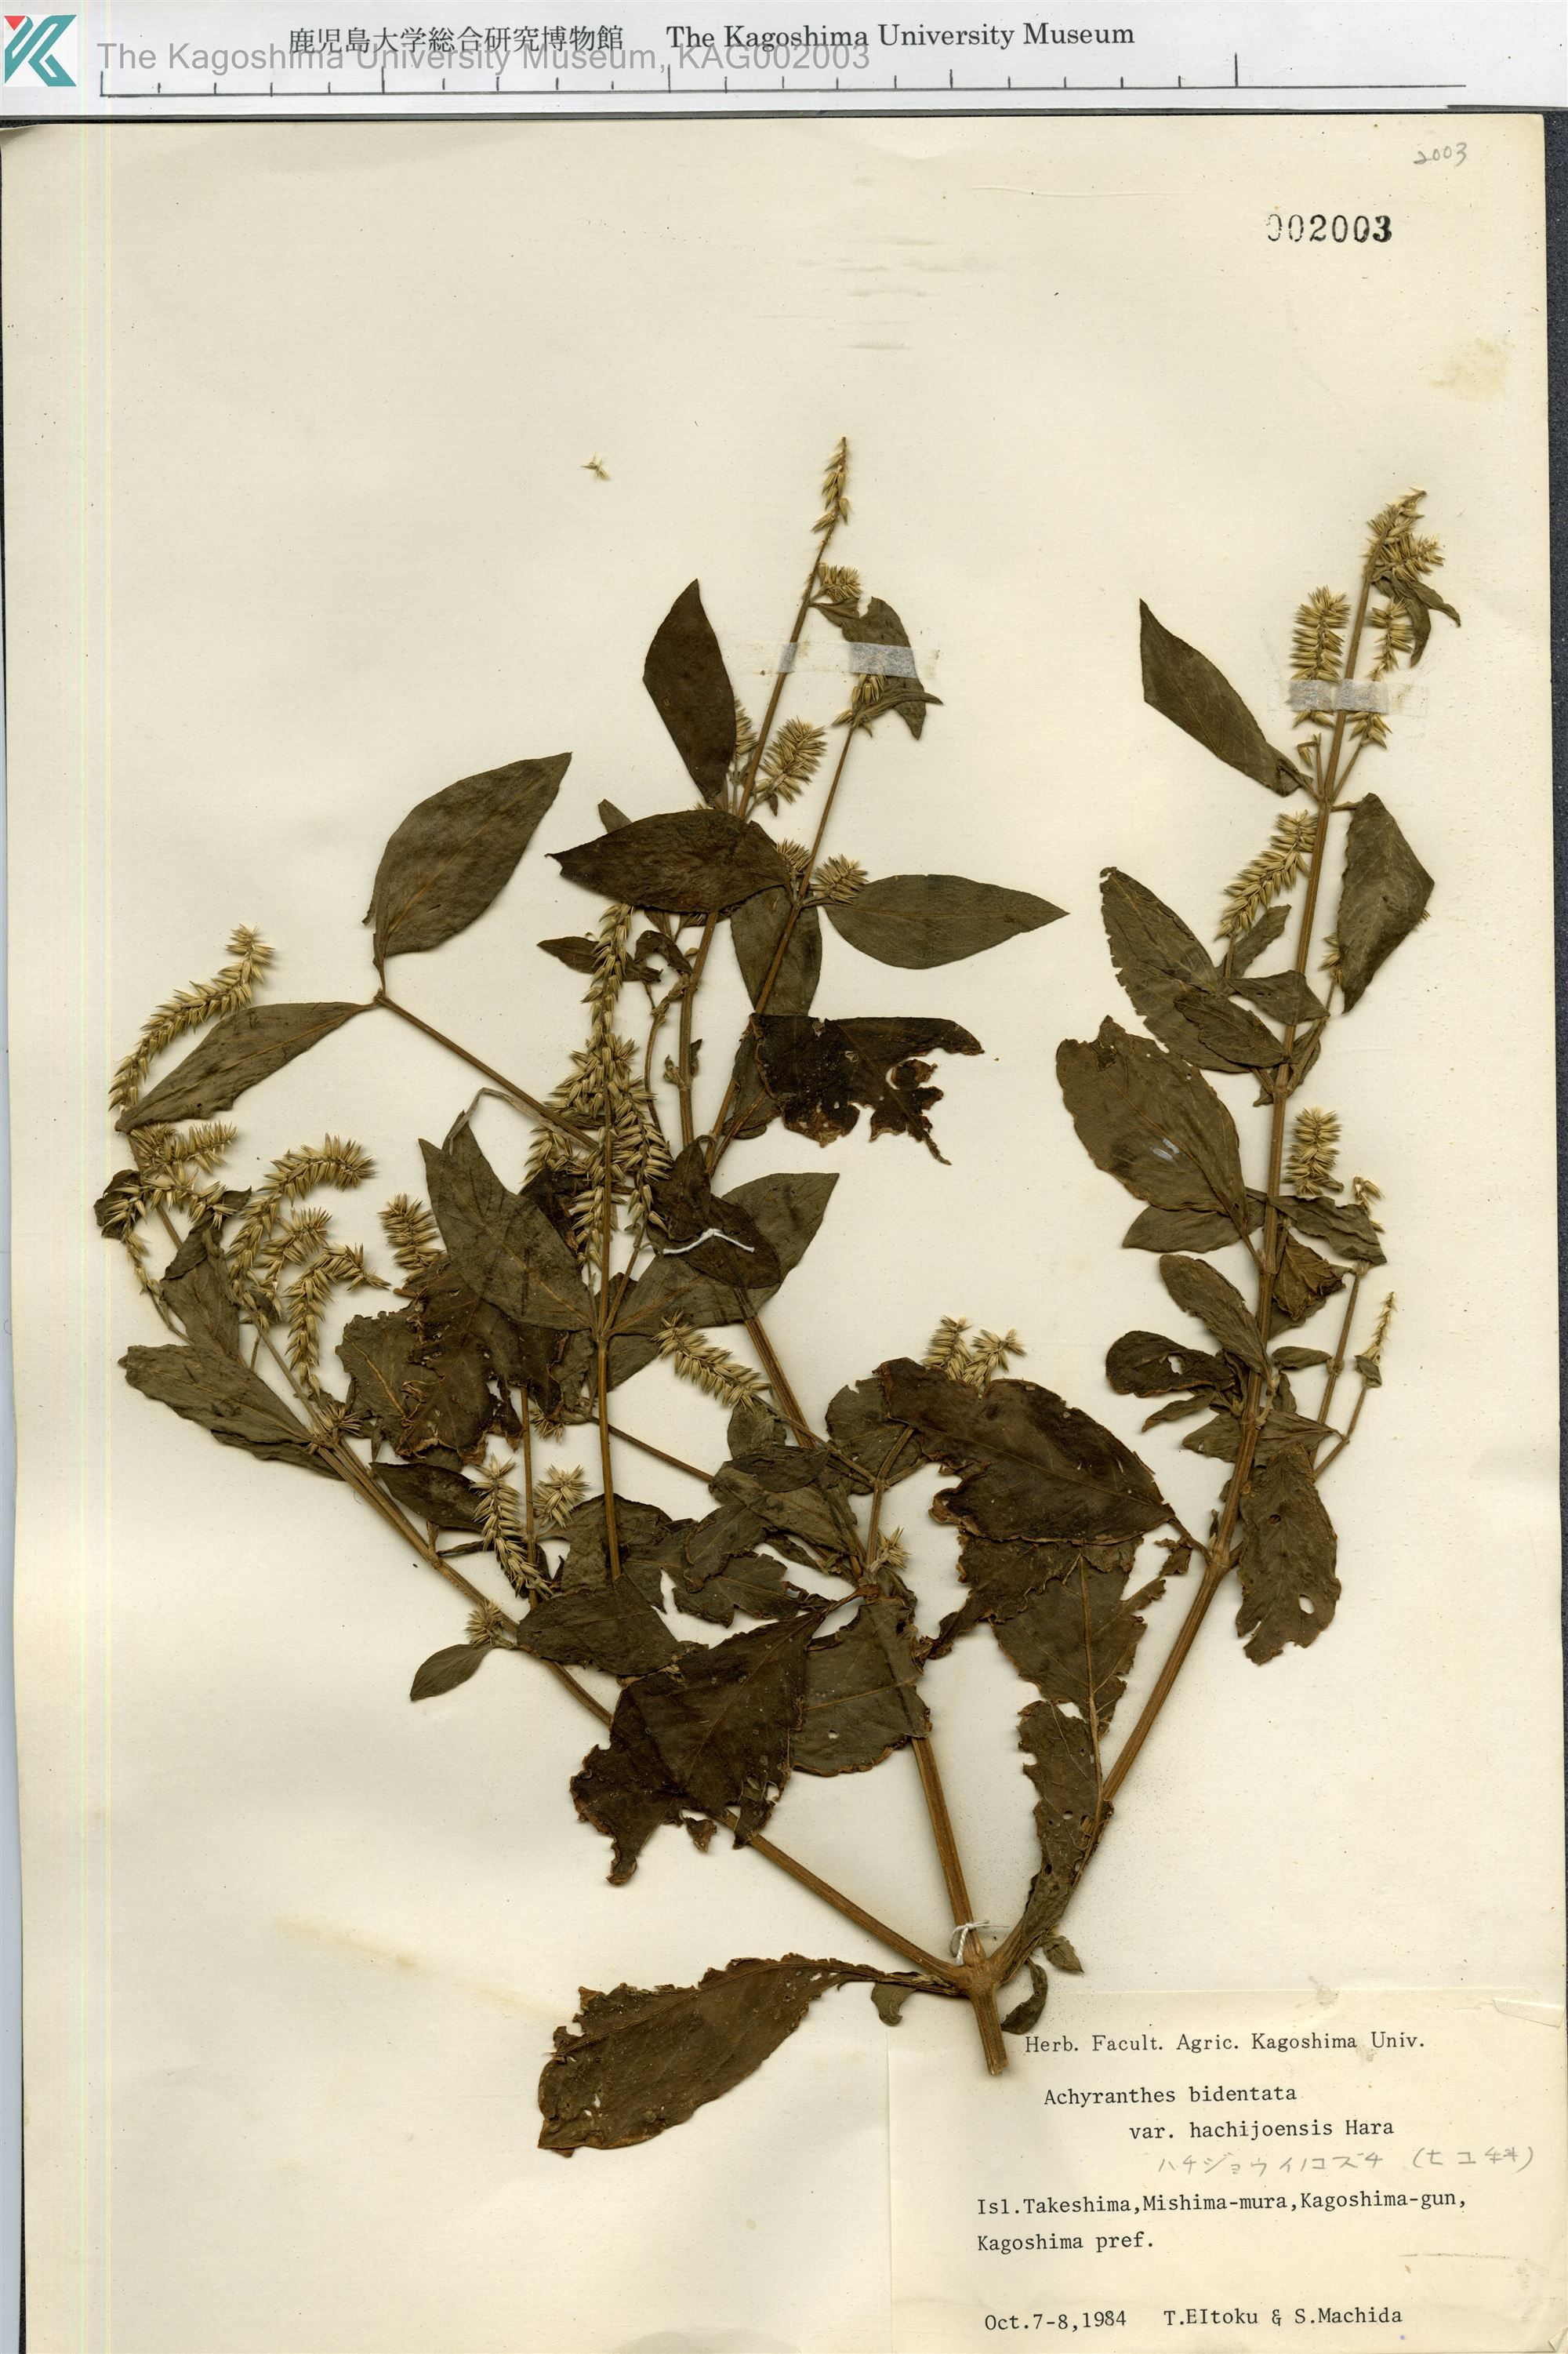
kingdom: Plantae
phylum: Tracheophyta
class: Magnoliopsida
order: Caryophyllales
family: Amaranthaceae
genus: Achyranthes
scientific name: Achyranthes bidentata
